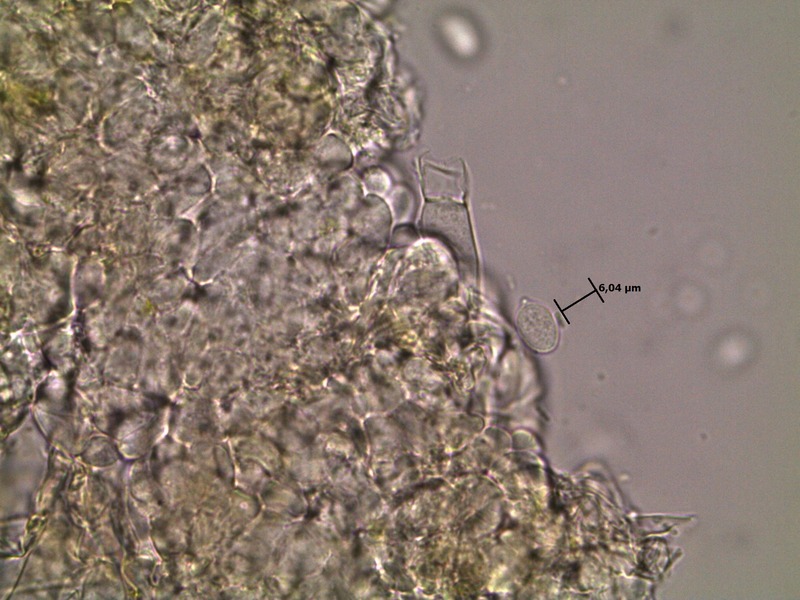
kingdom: Fungi
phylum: Basidiomycota
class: Agaricomycetes
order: Cantharellales
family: Ceratobasidiaceae
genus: Rhizoctonia
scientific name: Rhizoctonia
